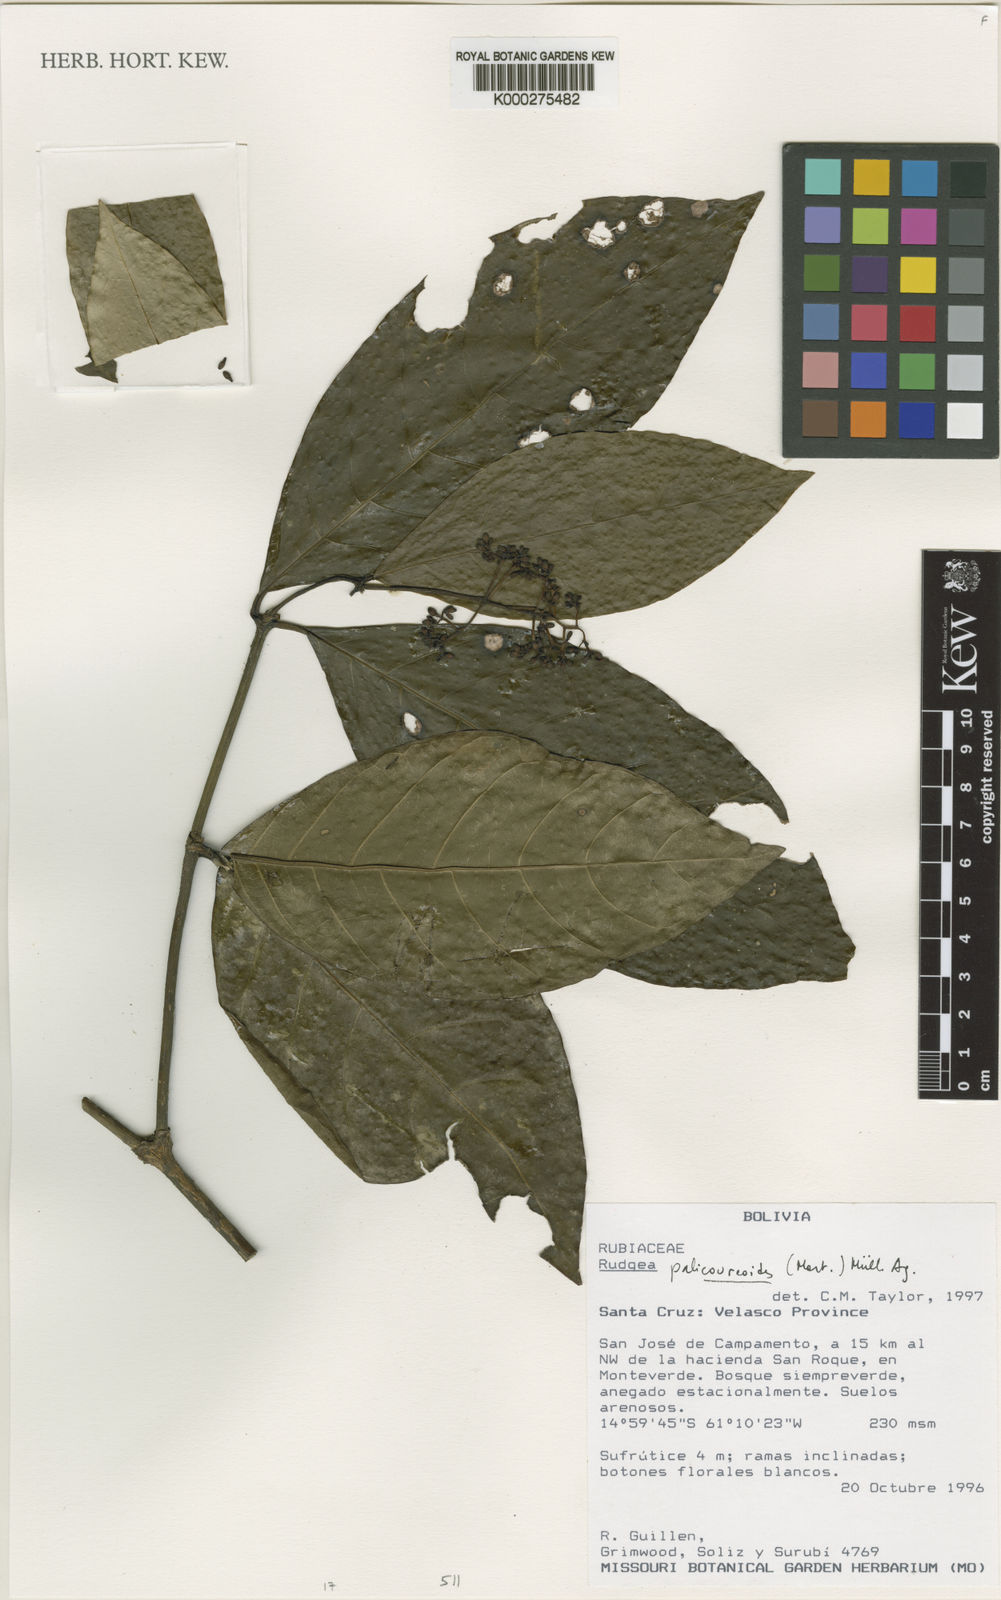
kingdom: Plantae
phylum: Tracheophyta
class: Magnoliopsida
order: Gentianales
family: Rubiaceae
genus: Rudgea
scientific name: Rudgea palicoureoides
